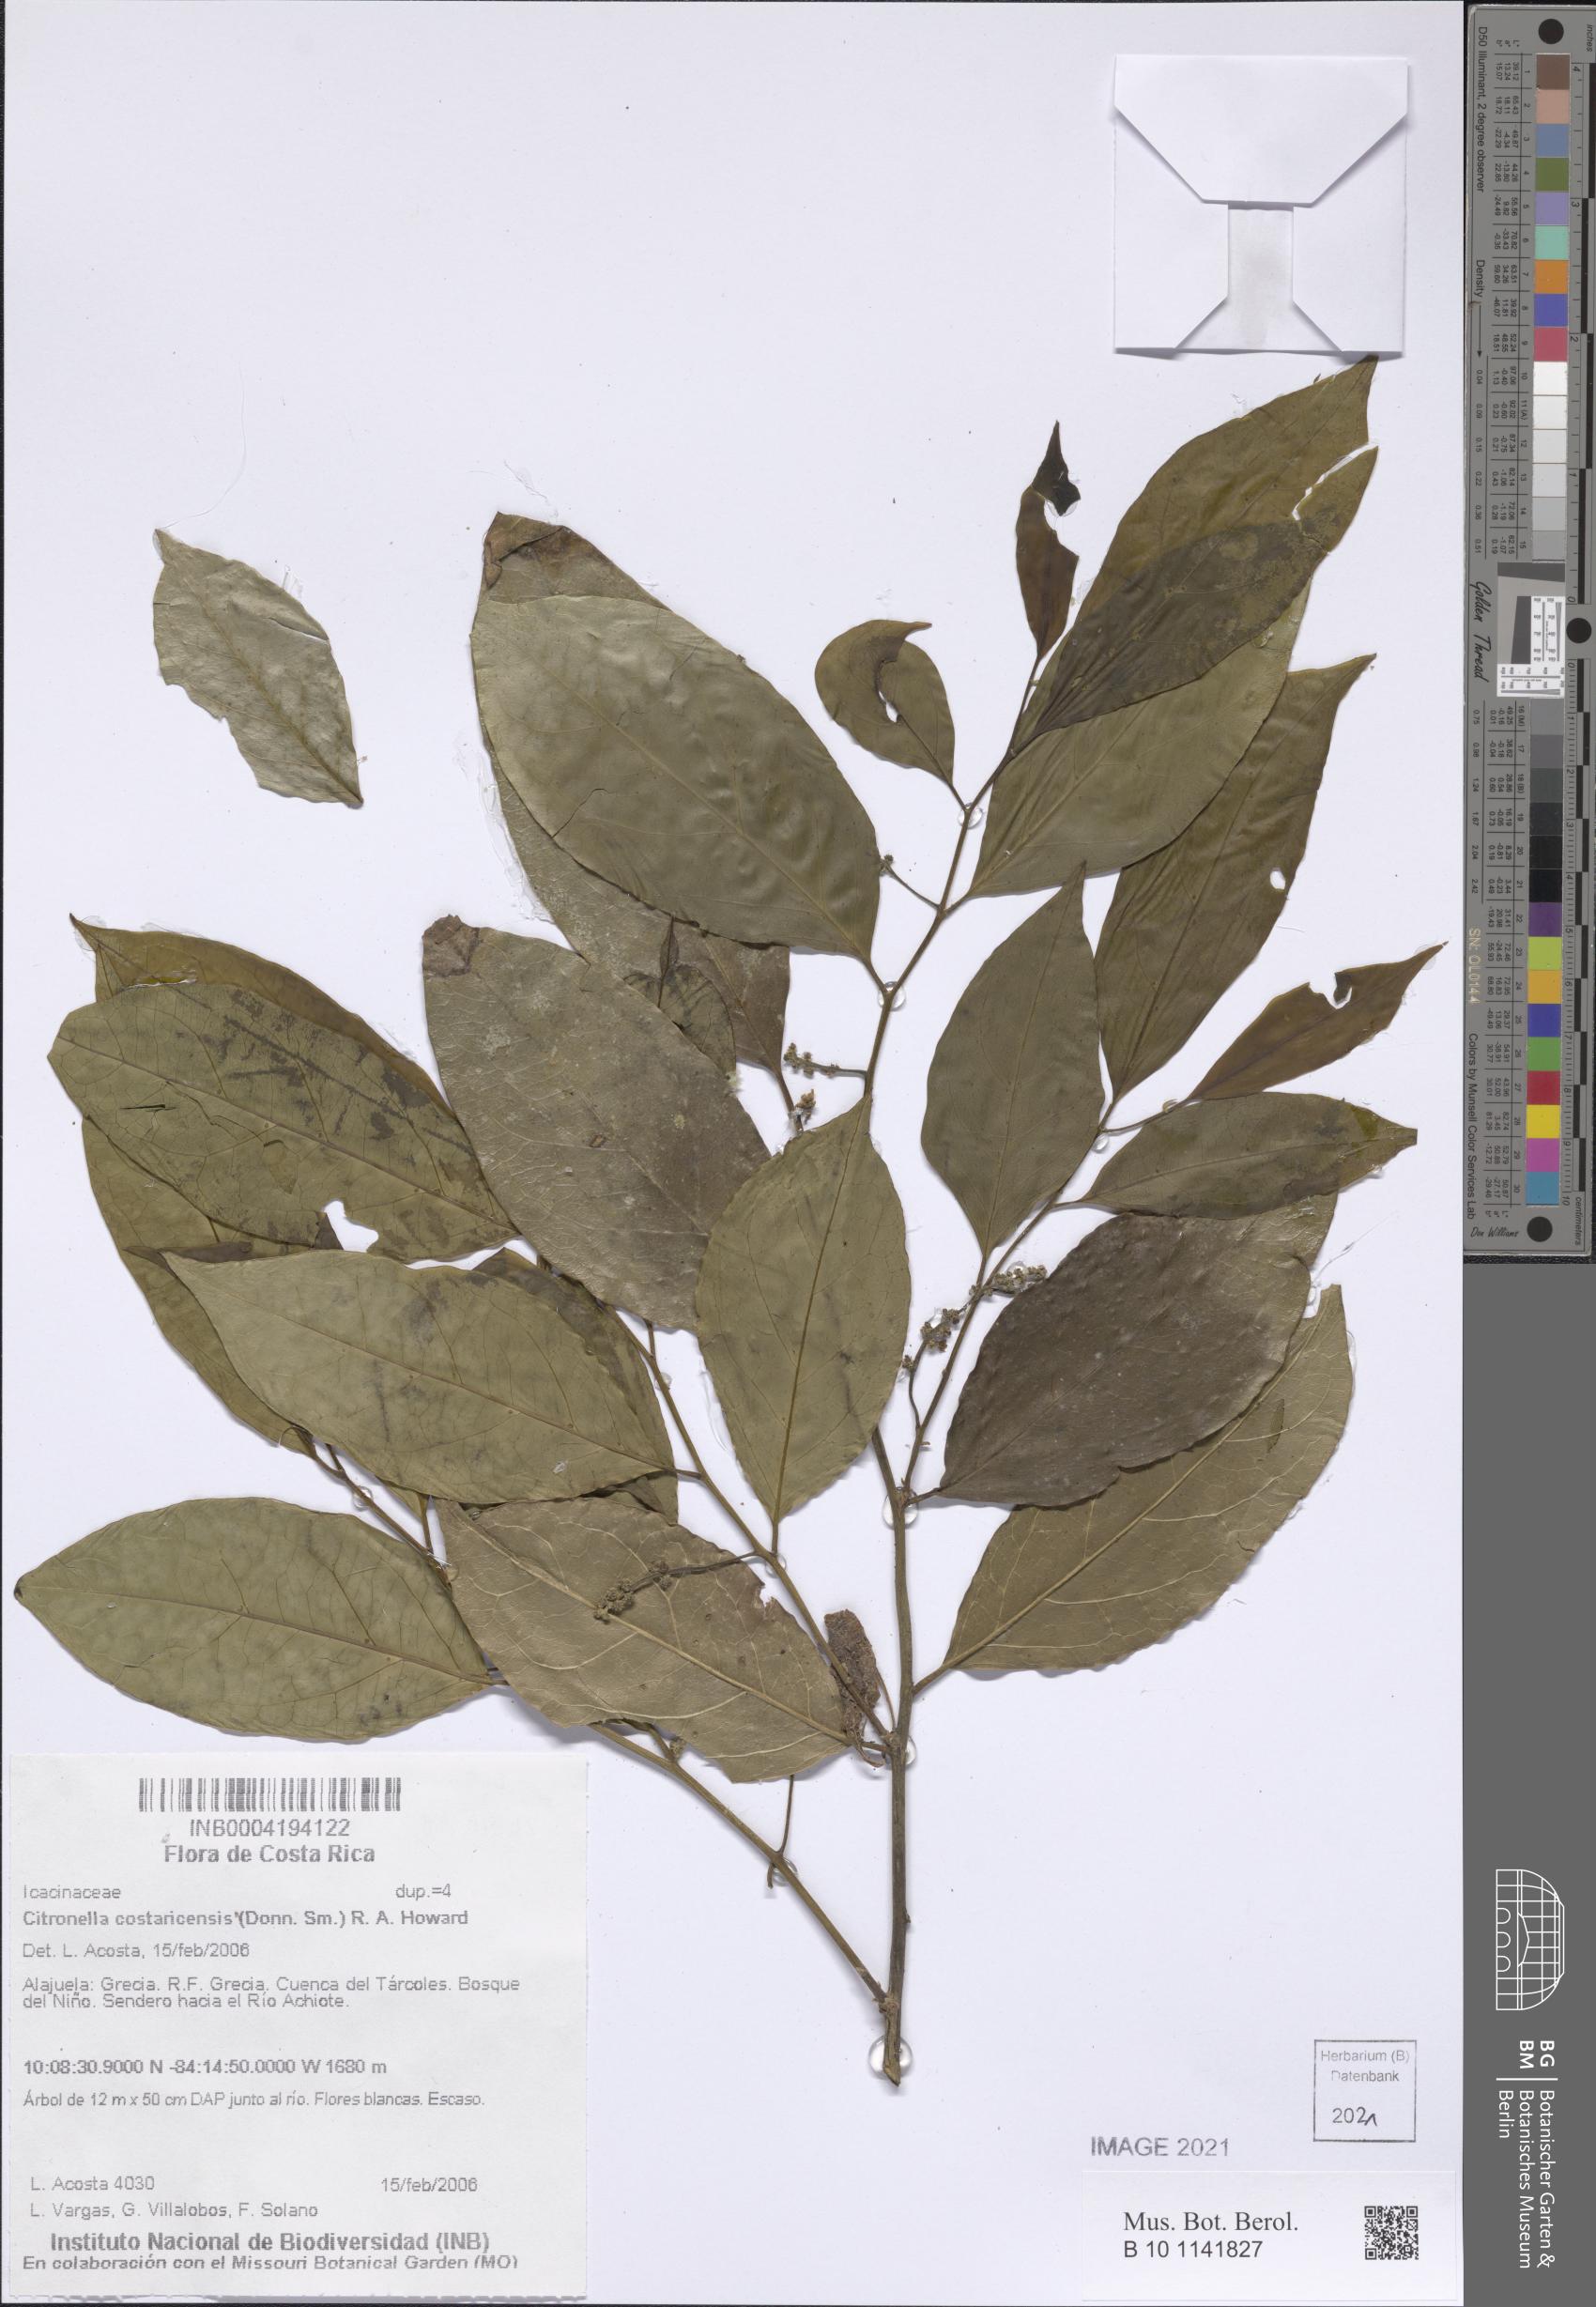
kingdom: Plantae
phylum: Tracheophyta
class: Magnoliopsida
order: Cardiopteridales
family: Cardiopteridaceae
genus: Citronella
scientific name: Citronella costaricensis
